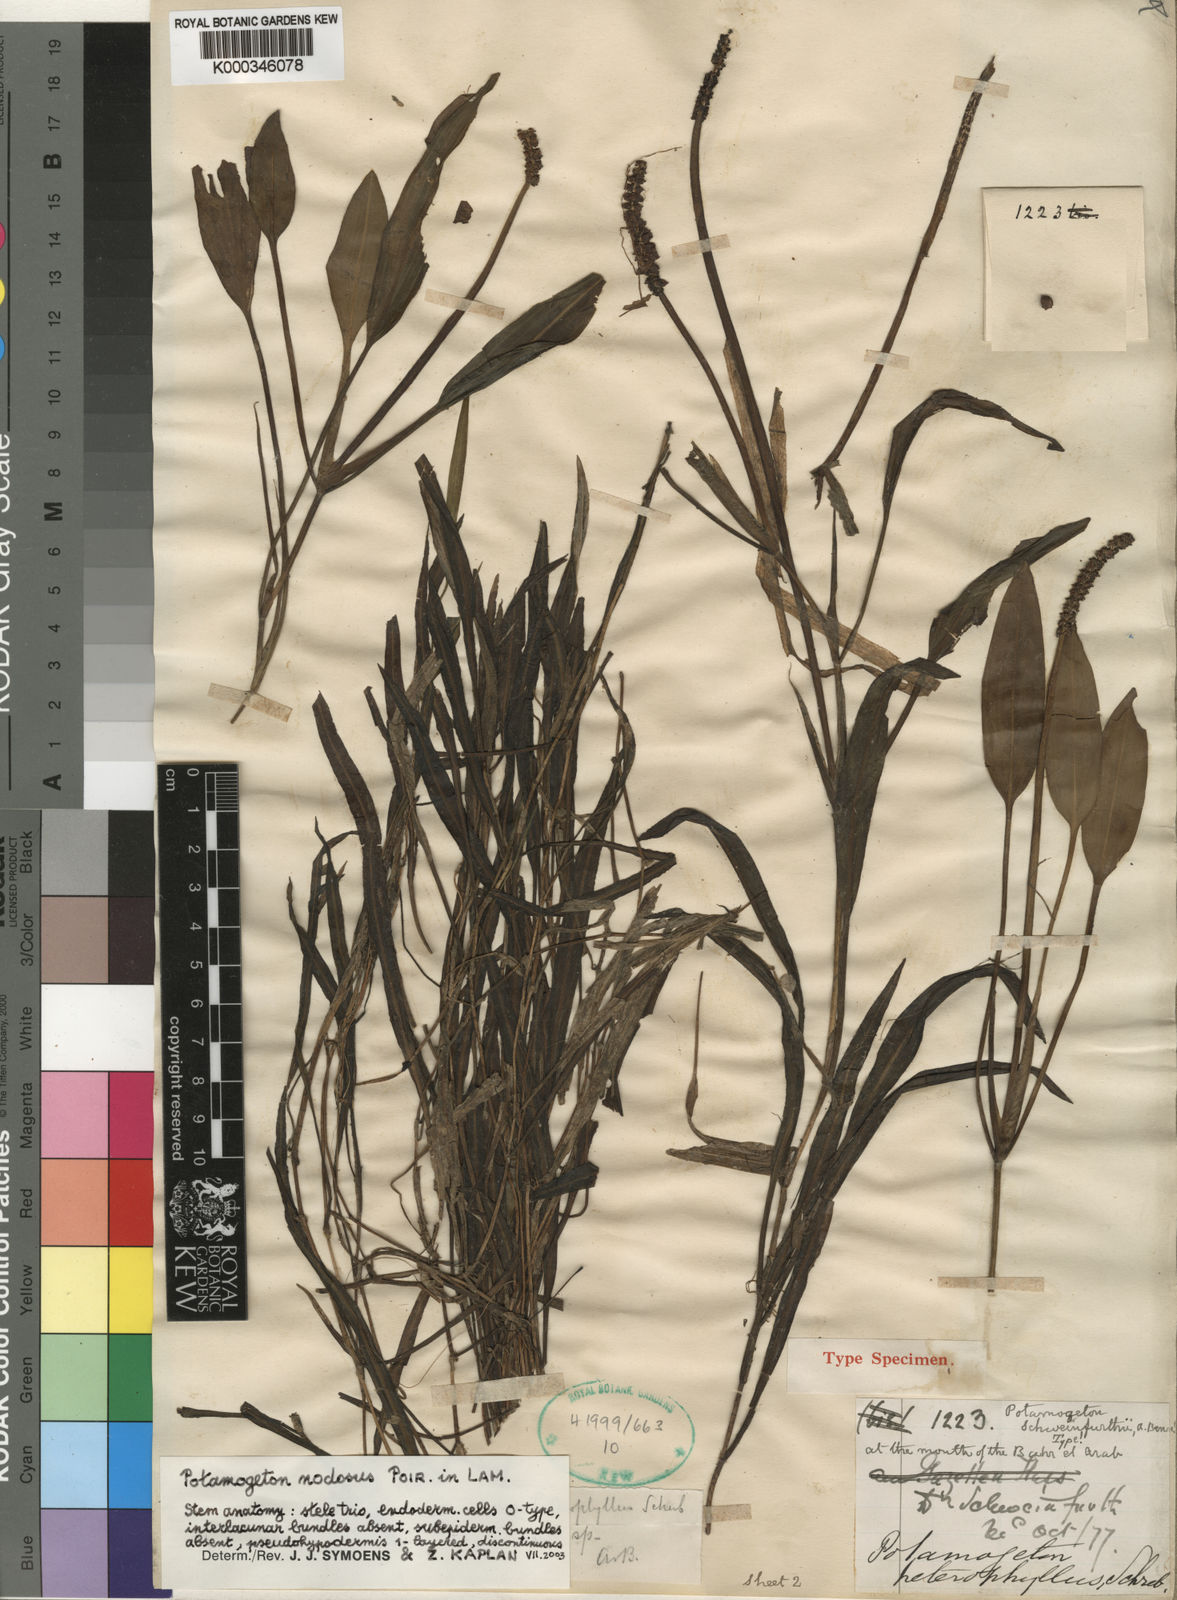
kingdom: Plantae
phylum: Tracheophyta
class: Liliopsida
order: Alismatales
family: Potamogetonaceae
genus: Potamogeton
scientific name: Potamogeton schweinfurthii
